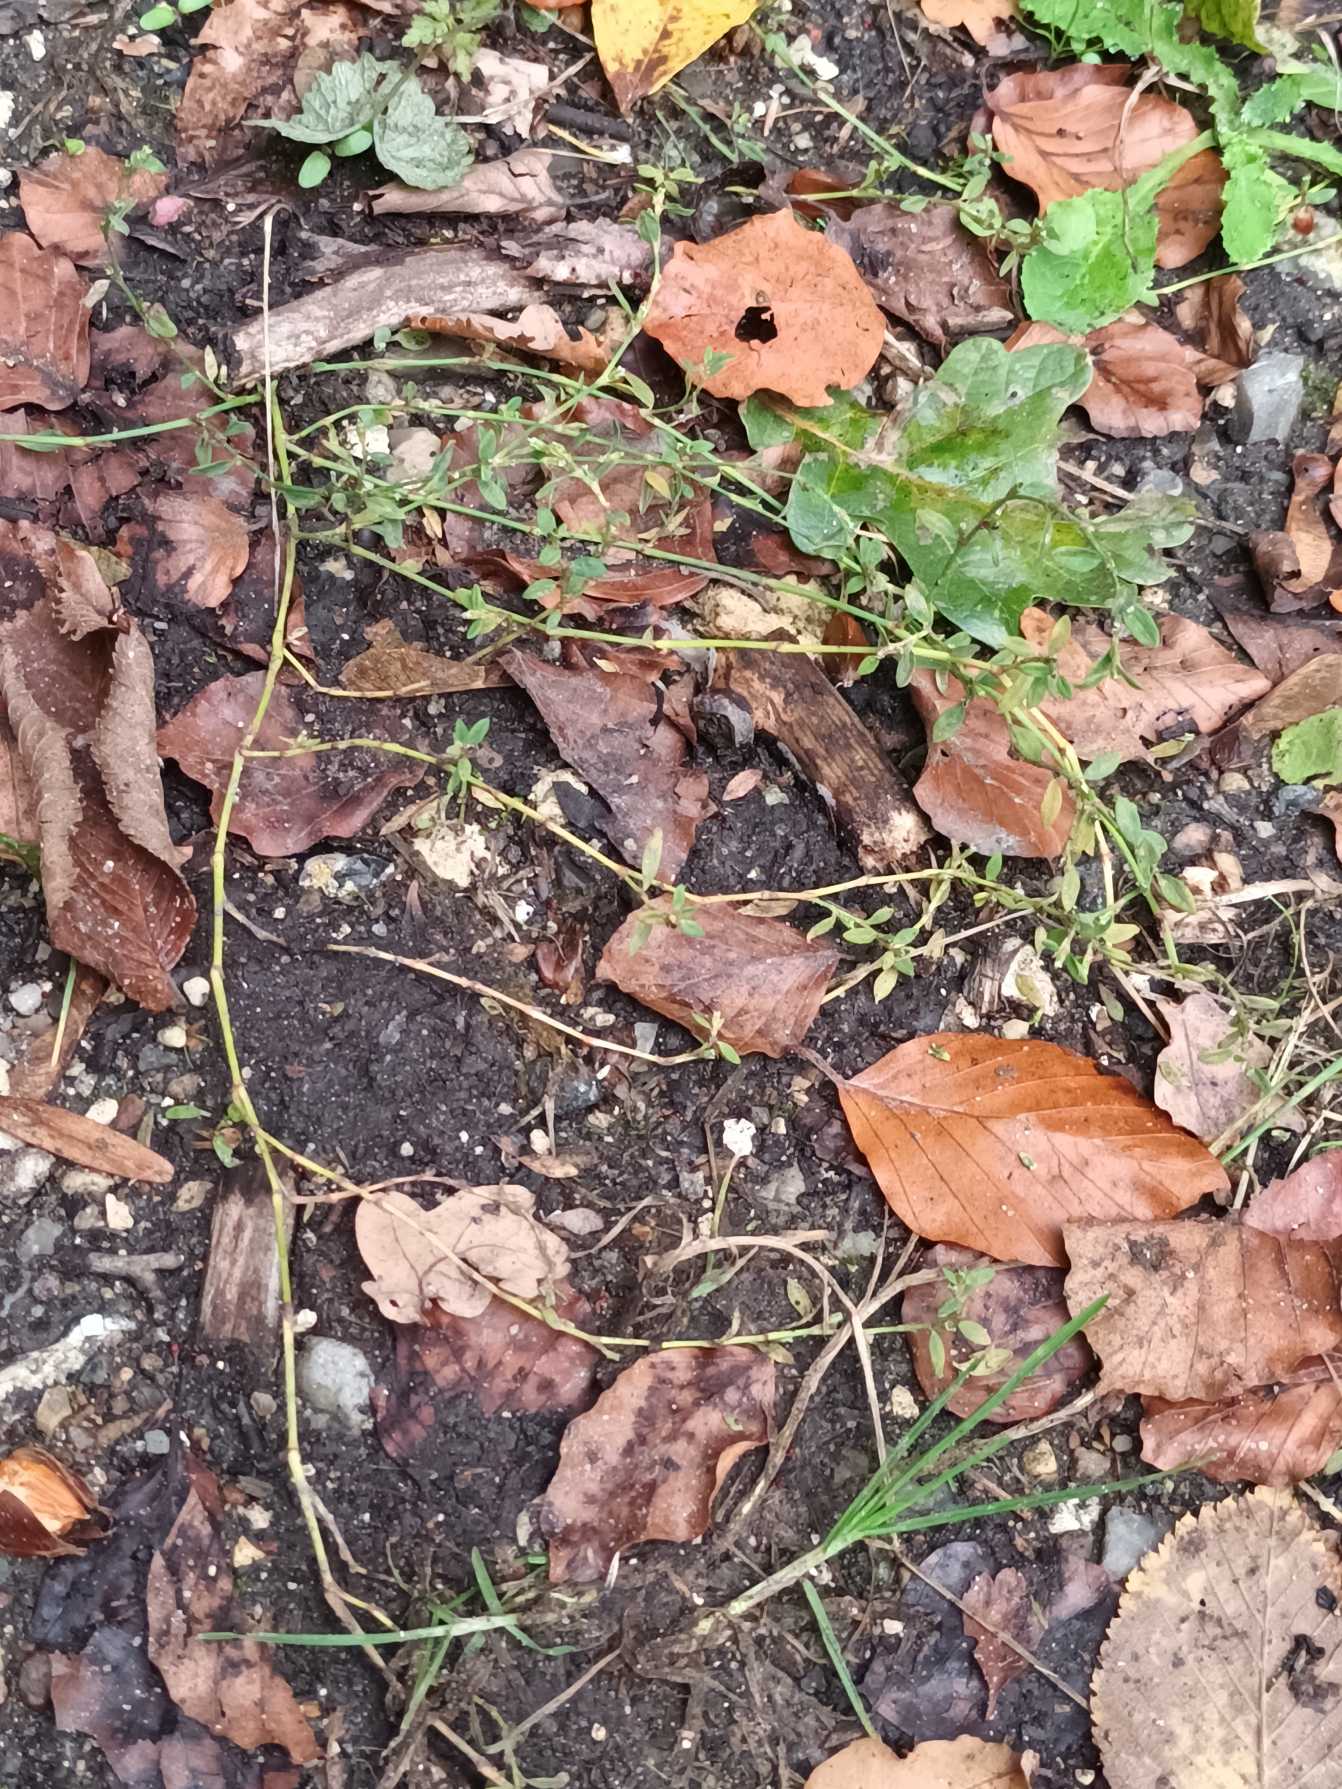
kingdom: Plantae
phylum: Tracheophyta
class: Magnoliopsida
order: Caryophyllales
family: Polygonaceae
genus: Polygonum
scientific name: Polygonum arenastrum
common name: Liggende vej-pileurt
